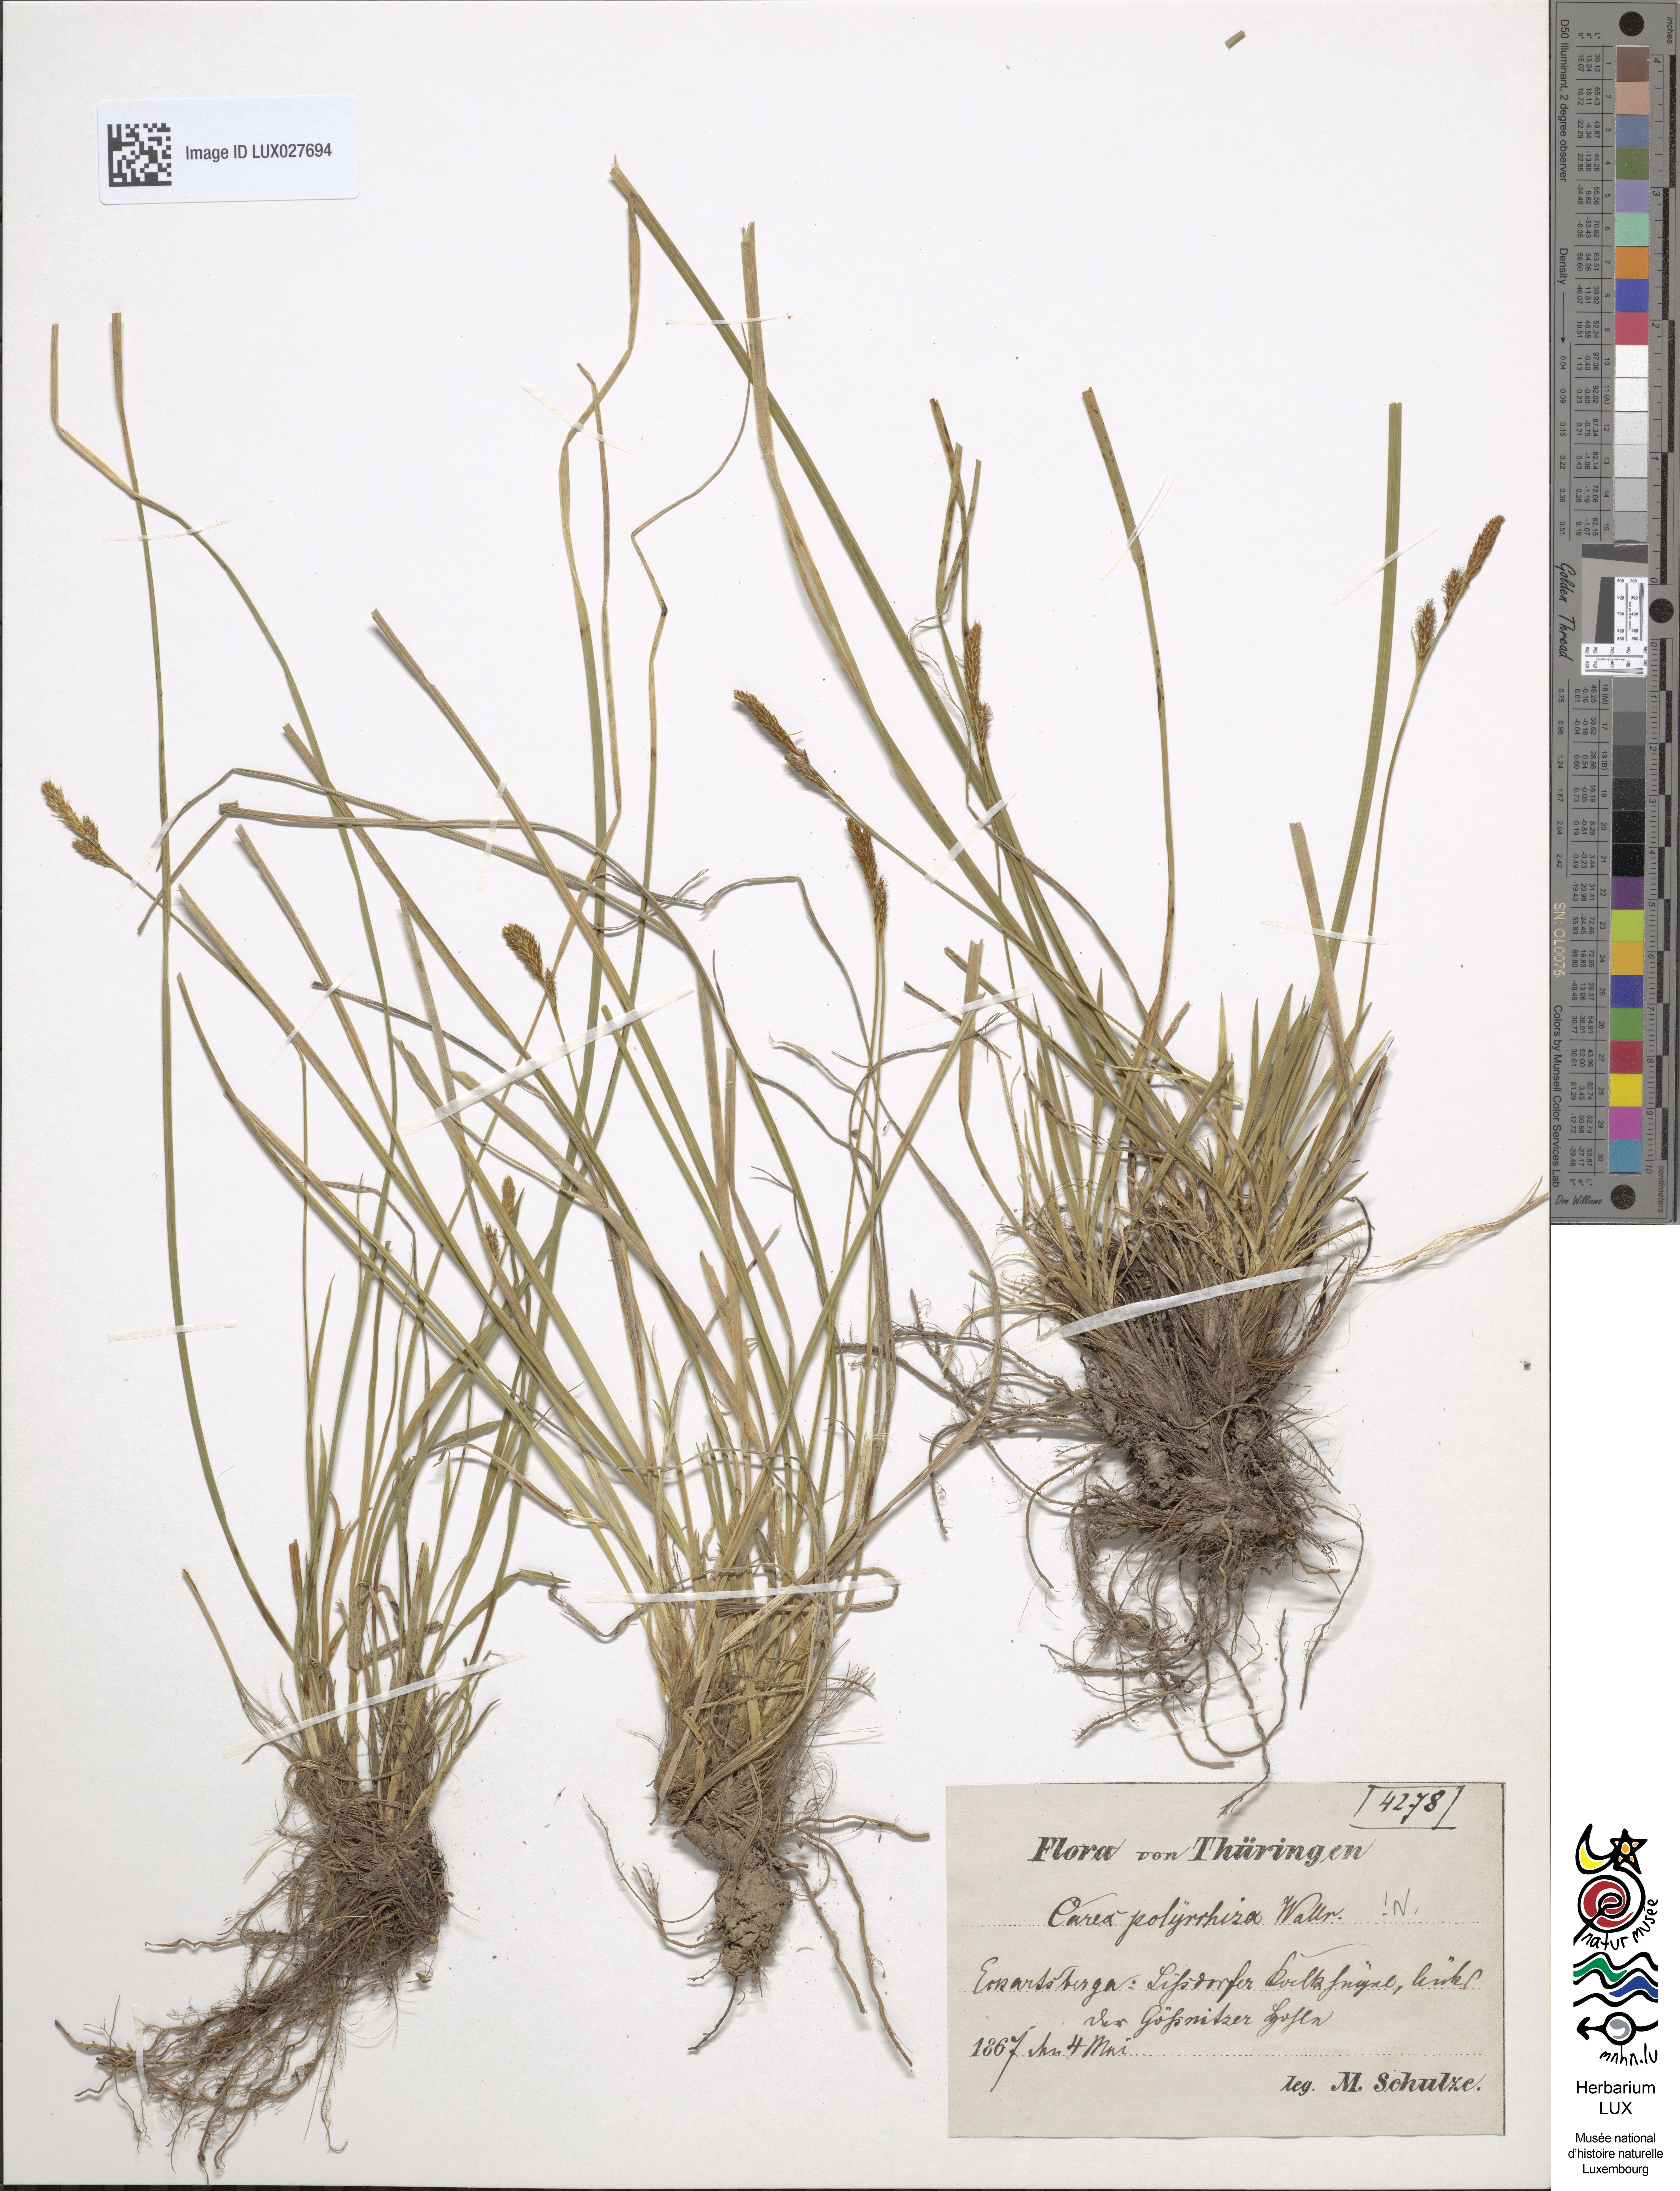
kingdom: Plantae
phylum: Tracheophyta
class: Liliopsida
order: Poales
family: Cyperaceae
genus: Carex
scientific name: Carex umbrosa
